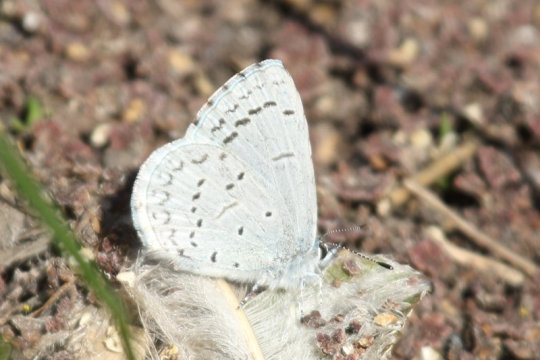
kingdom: Animalia
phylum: Arthropoda
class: Insecta
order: Lepidoptera
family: Lycaenidae
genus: Celastrina
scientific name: Celastrina ladon
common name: Spring Azure
